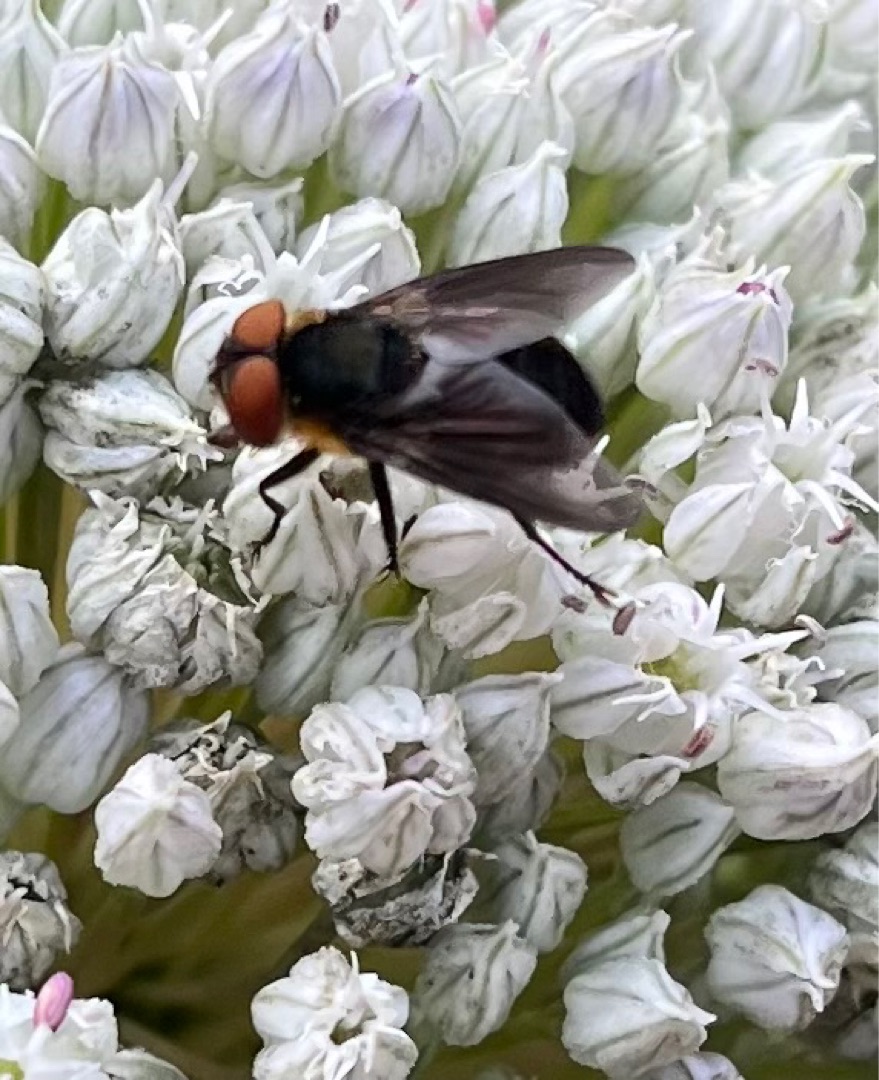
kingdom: Animalia
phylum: Arthropoda
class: Insecta
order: Diptera
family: Tachinidae
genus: Phasia
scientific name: Phasia hemiptera
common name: Blåvinget pragtsnylteflue
